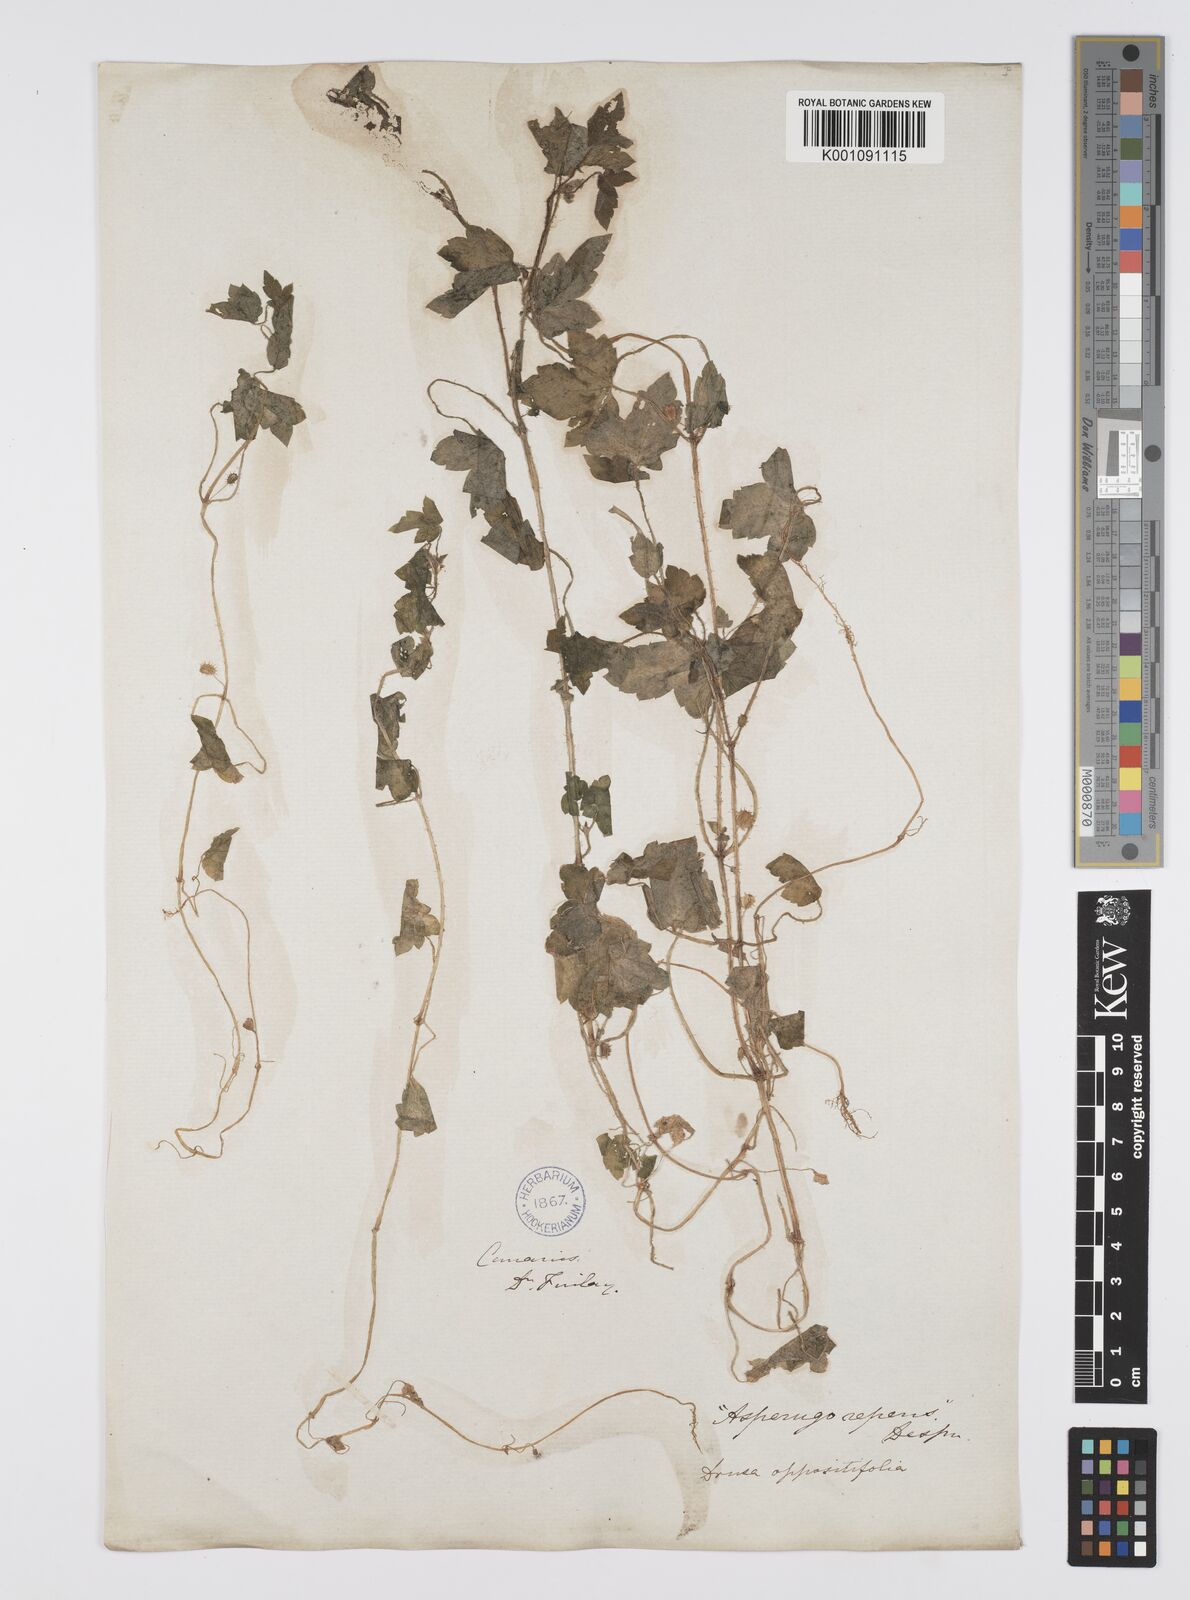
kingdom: Plantae
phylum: Tracheophyta
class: Magnoliopsida
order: Apiales
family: Apiaceae
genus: Drusa
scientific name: Drusa glandulosa
